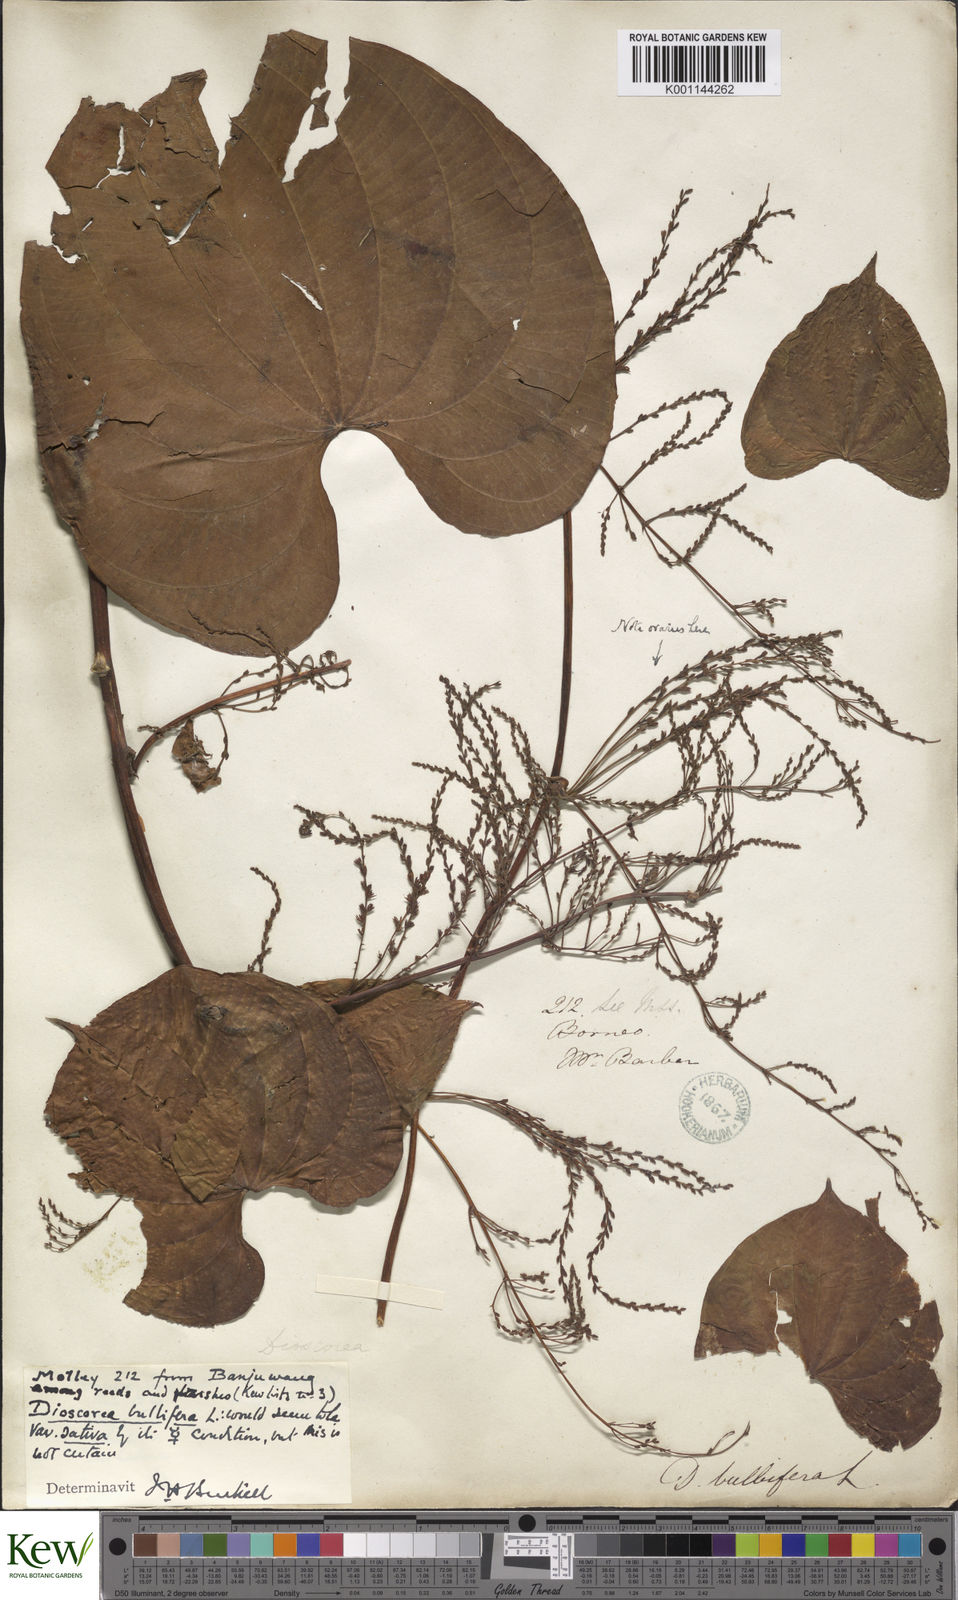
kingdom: Plantae
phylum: Tracheophyta
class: Liliopsida
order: Dioscoreales
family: Dioscoreaceae
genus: Dioscorea
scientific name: Dioscorea bulbifera
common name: Air yam
